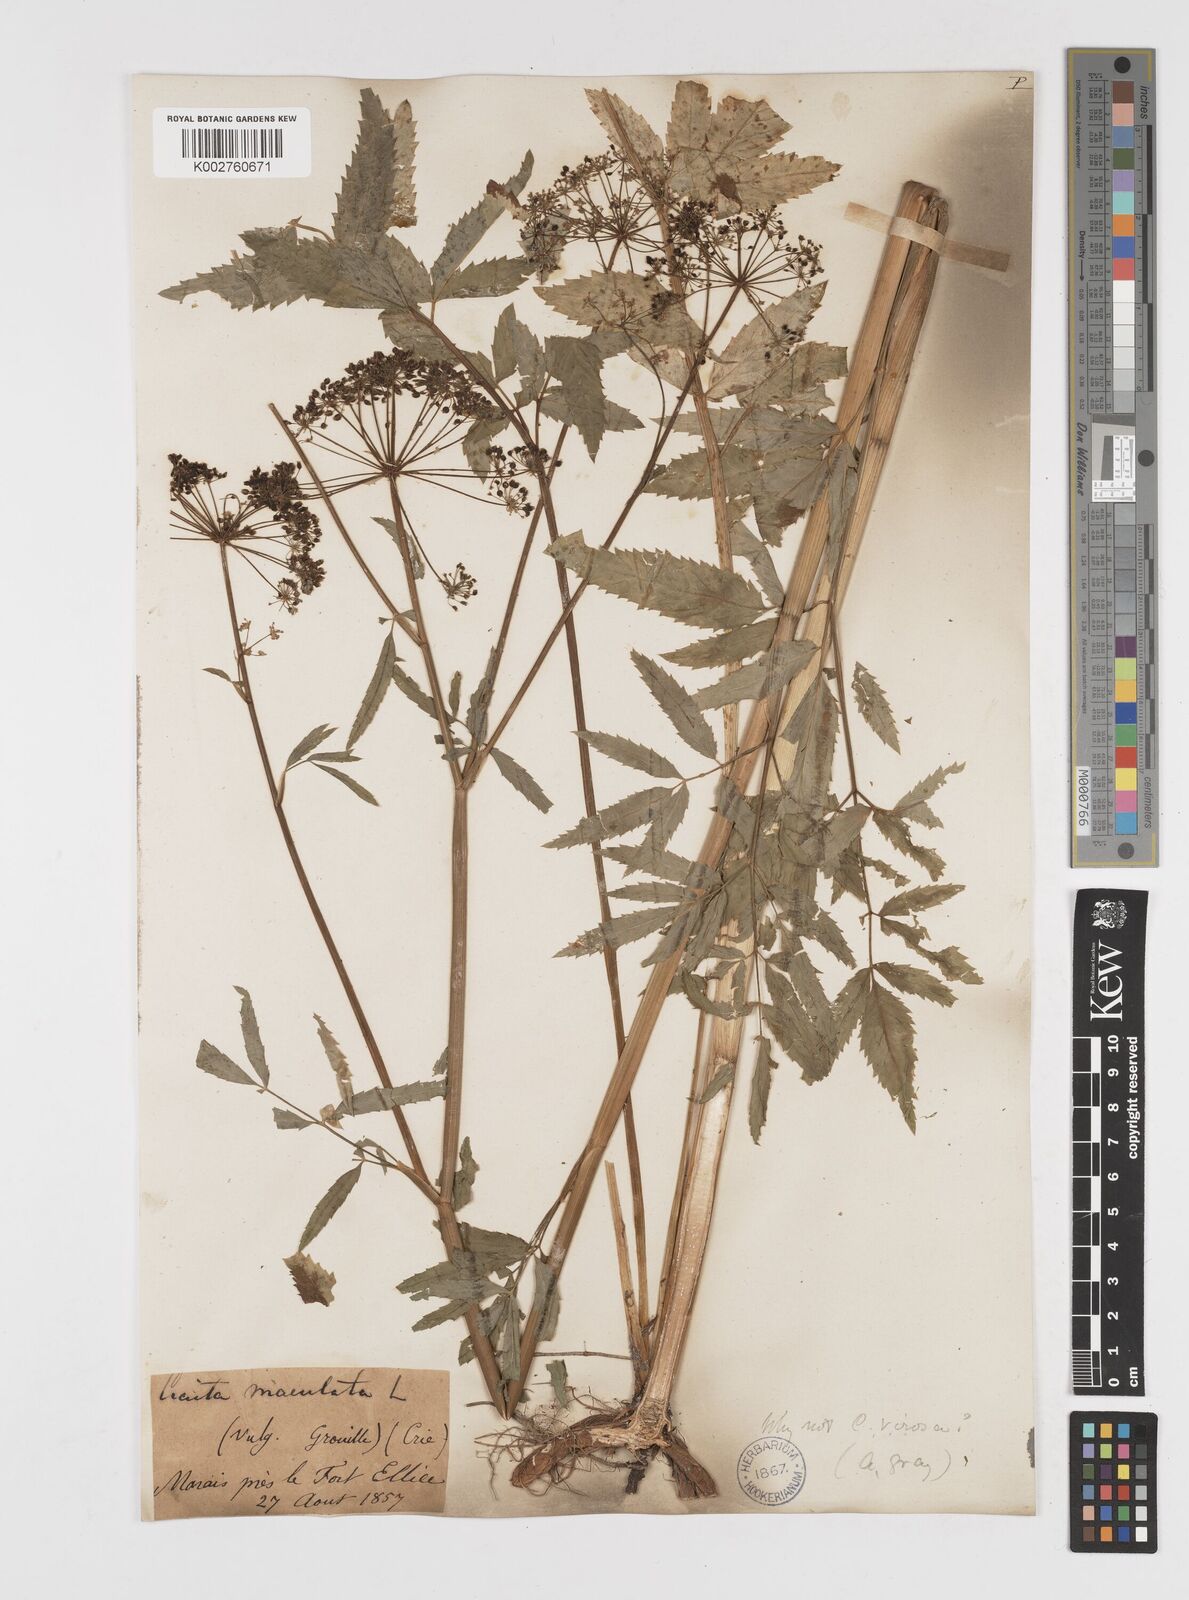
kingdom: Plantae
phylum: Tracheophyta
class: Magnoliopsida
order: Apiales
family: Apiaceae
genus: Cicuta
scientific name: Cicuta maculata
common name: Spotted cowbane
